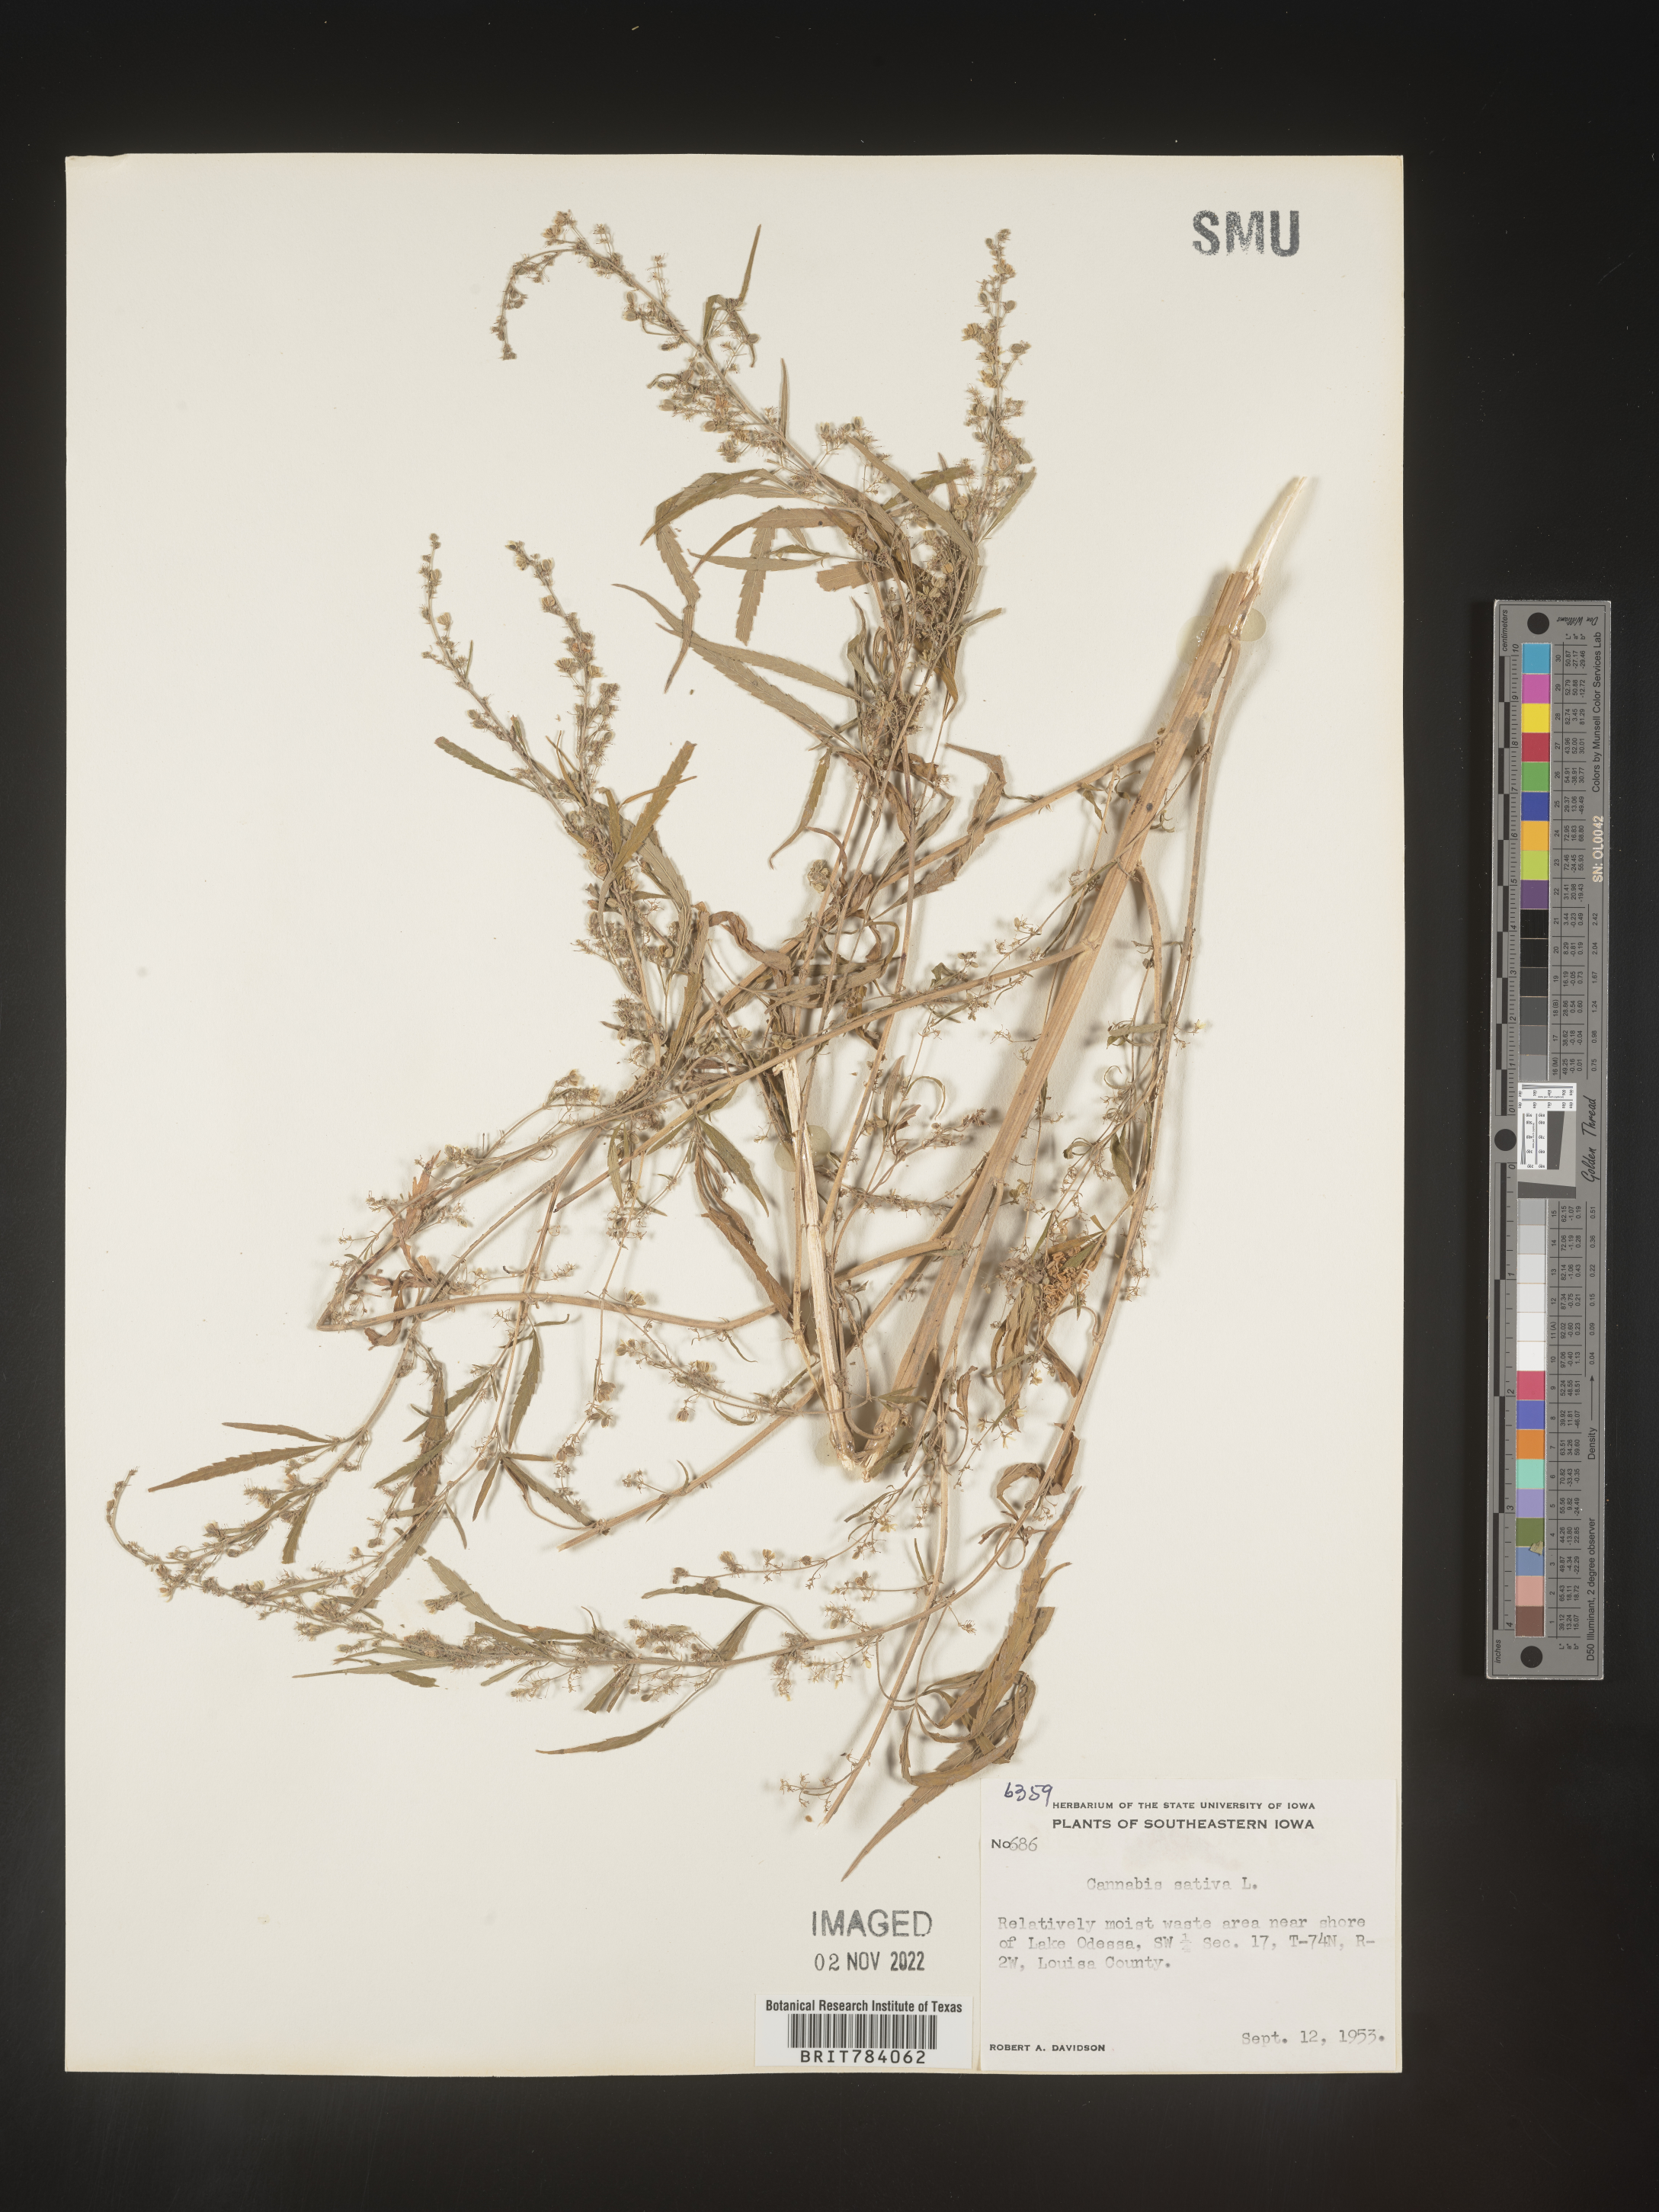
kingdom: Plantae
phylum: Tracheophyta
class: Magnoliopsida
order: Rosales
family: Cannabaceae
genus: Cannabis
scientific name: Cannabis sativa
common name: Hemp
